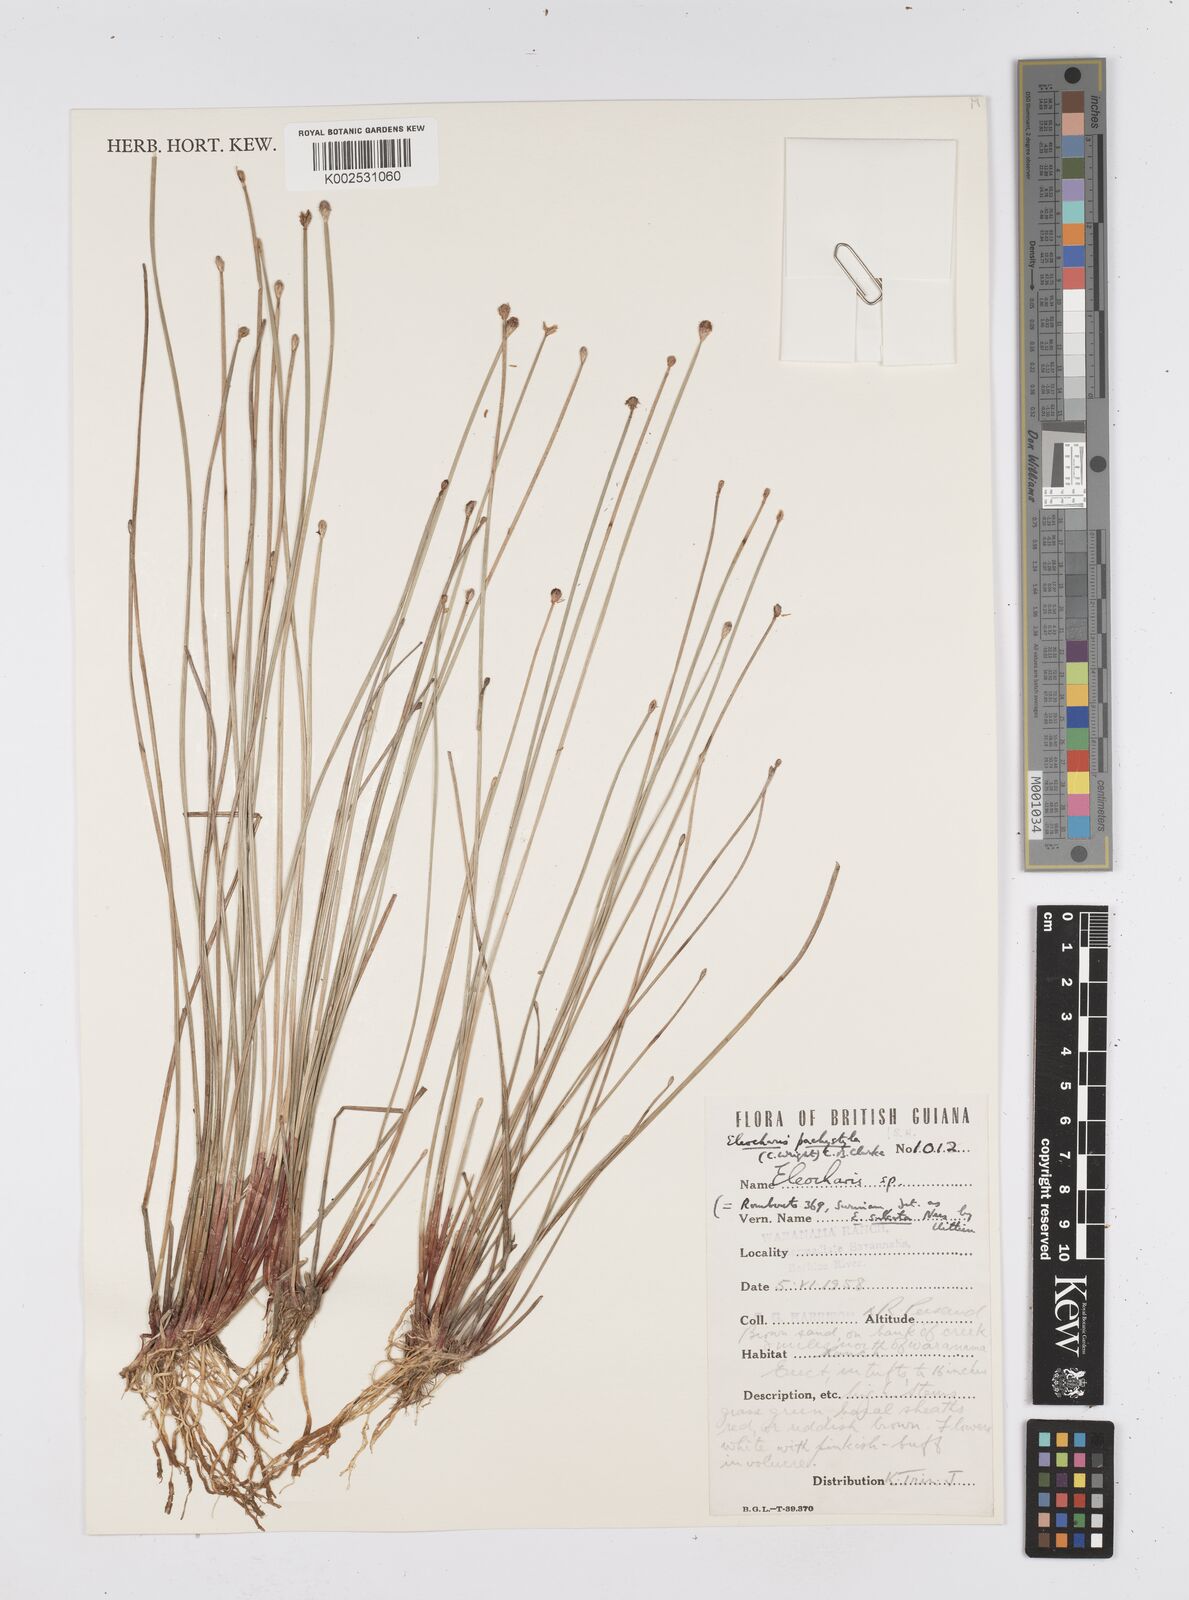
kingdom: Plantae
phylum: Tracheophyta
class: Liliopsida
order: Poales
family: Cyperaceae
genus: Eleocharis
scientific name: Eleocharis pachystyla
